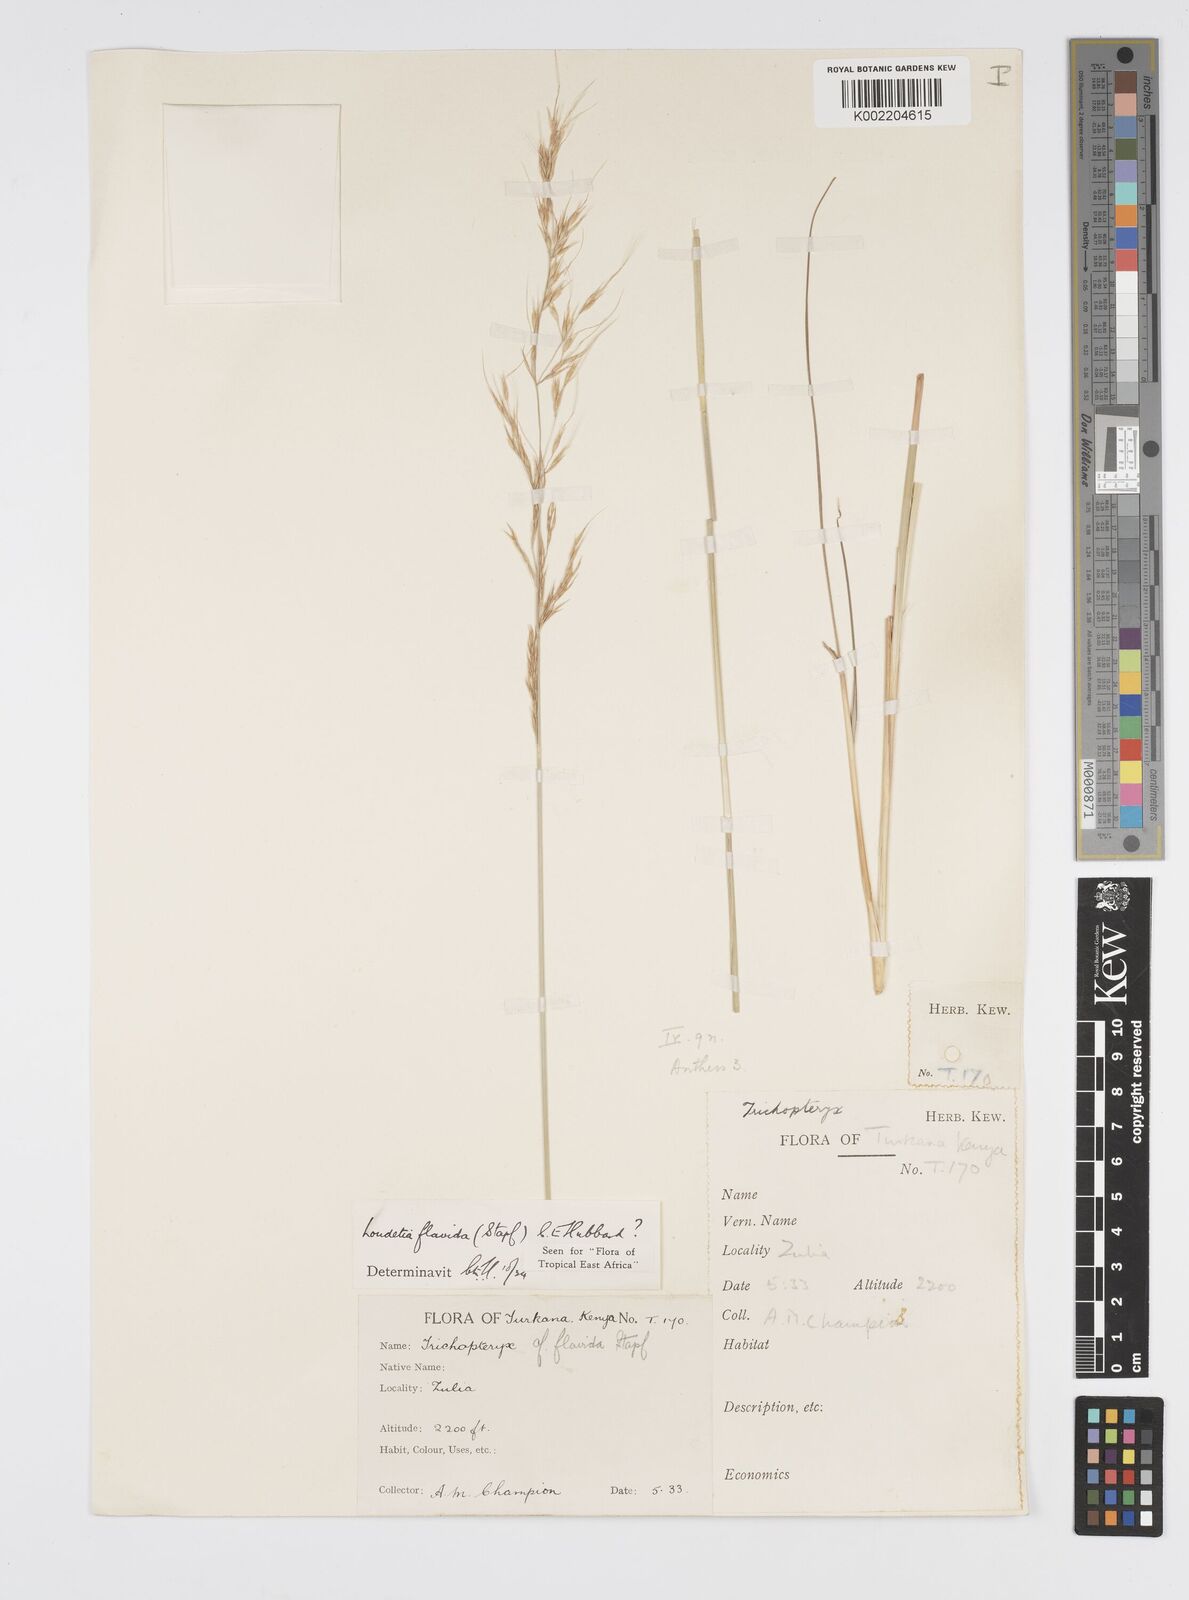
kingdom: Plantae
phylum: Tracheophyta
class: Liliopsida
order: Poales
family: Poaceae
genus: Loudetia
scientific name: Loudetia flavida
